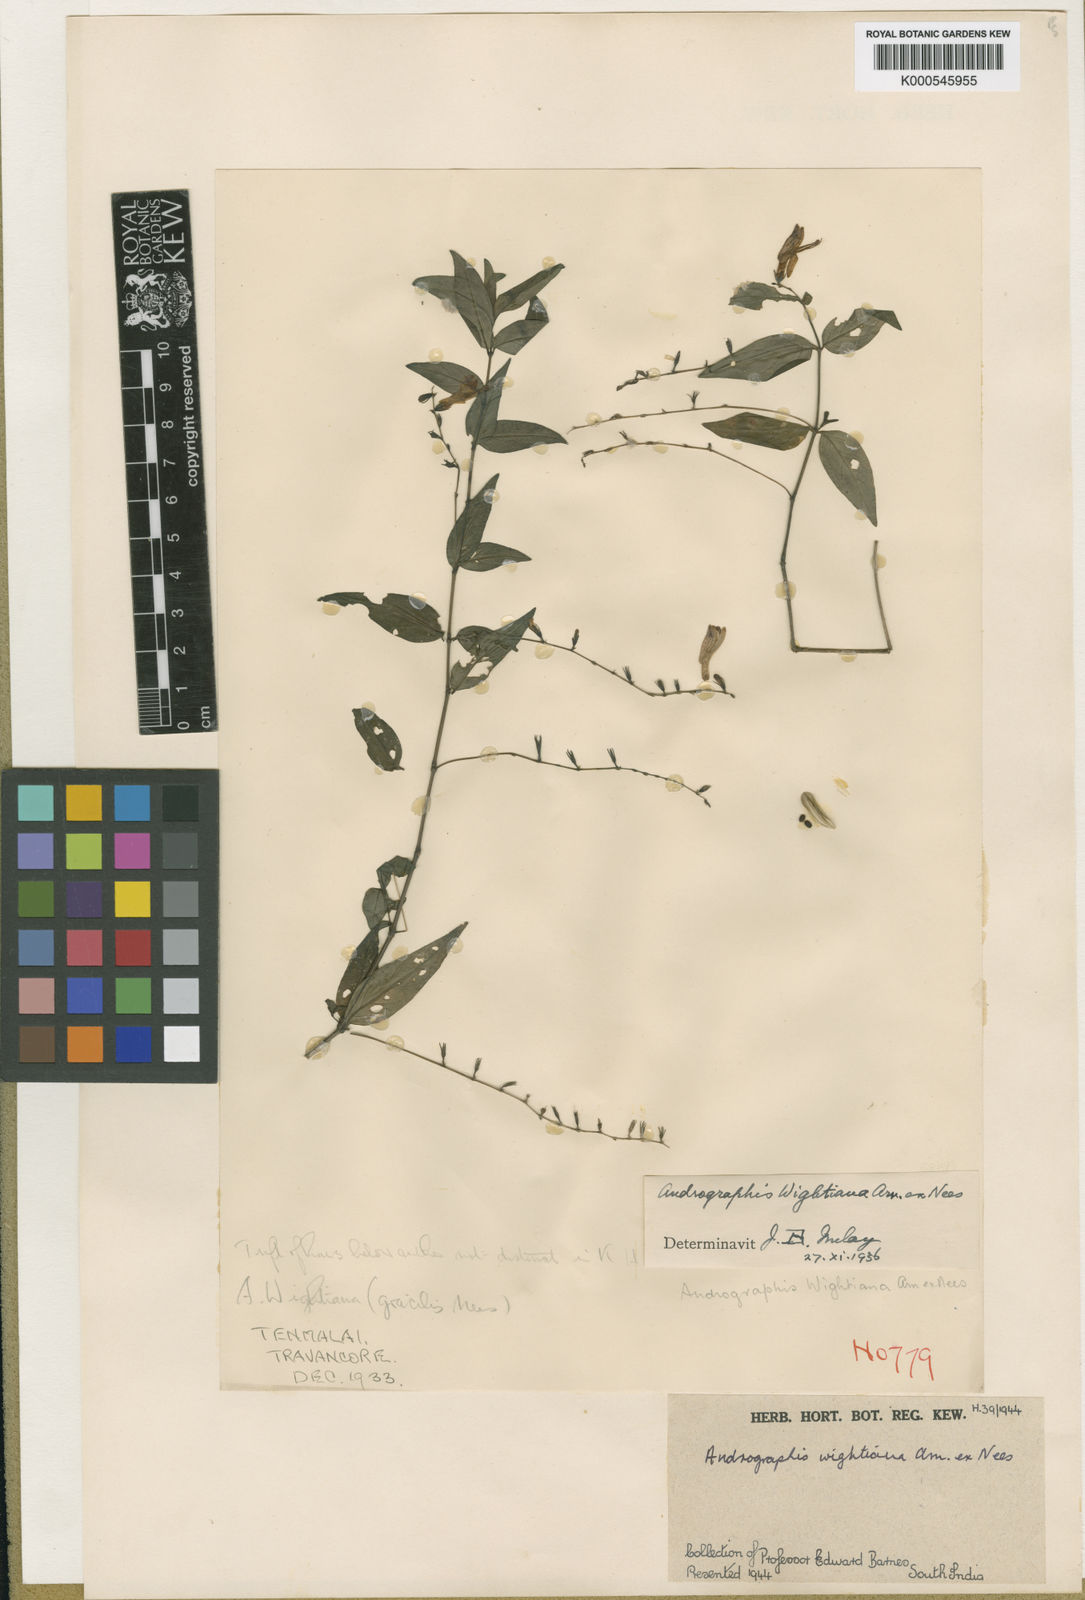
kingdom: Plantae
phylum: Tracheophyta
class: Magnoliopsida
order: Lamiales
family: Acanthaceae
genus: Andrographis
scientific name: Andrographis atropurpurea
